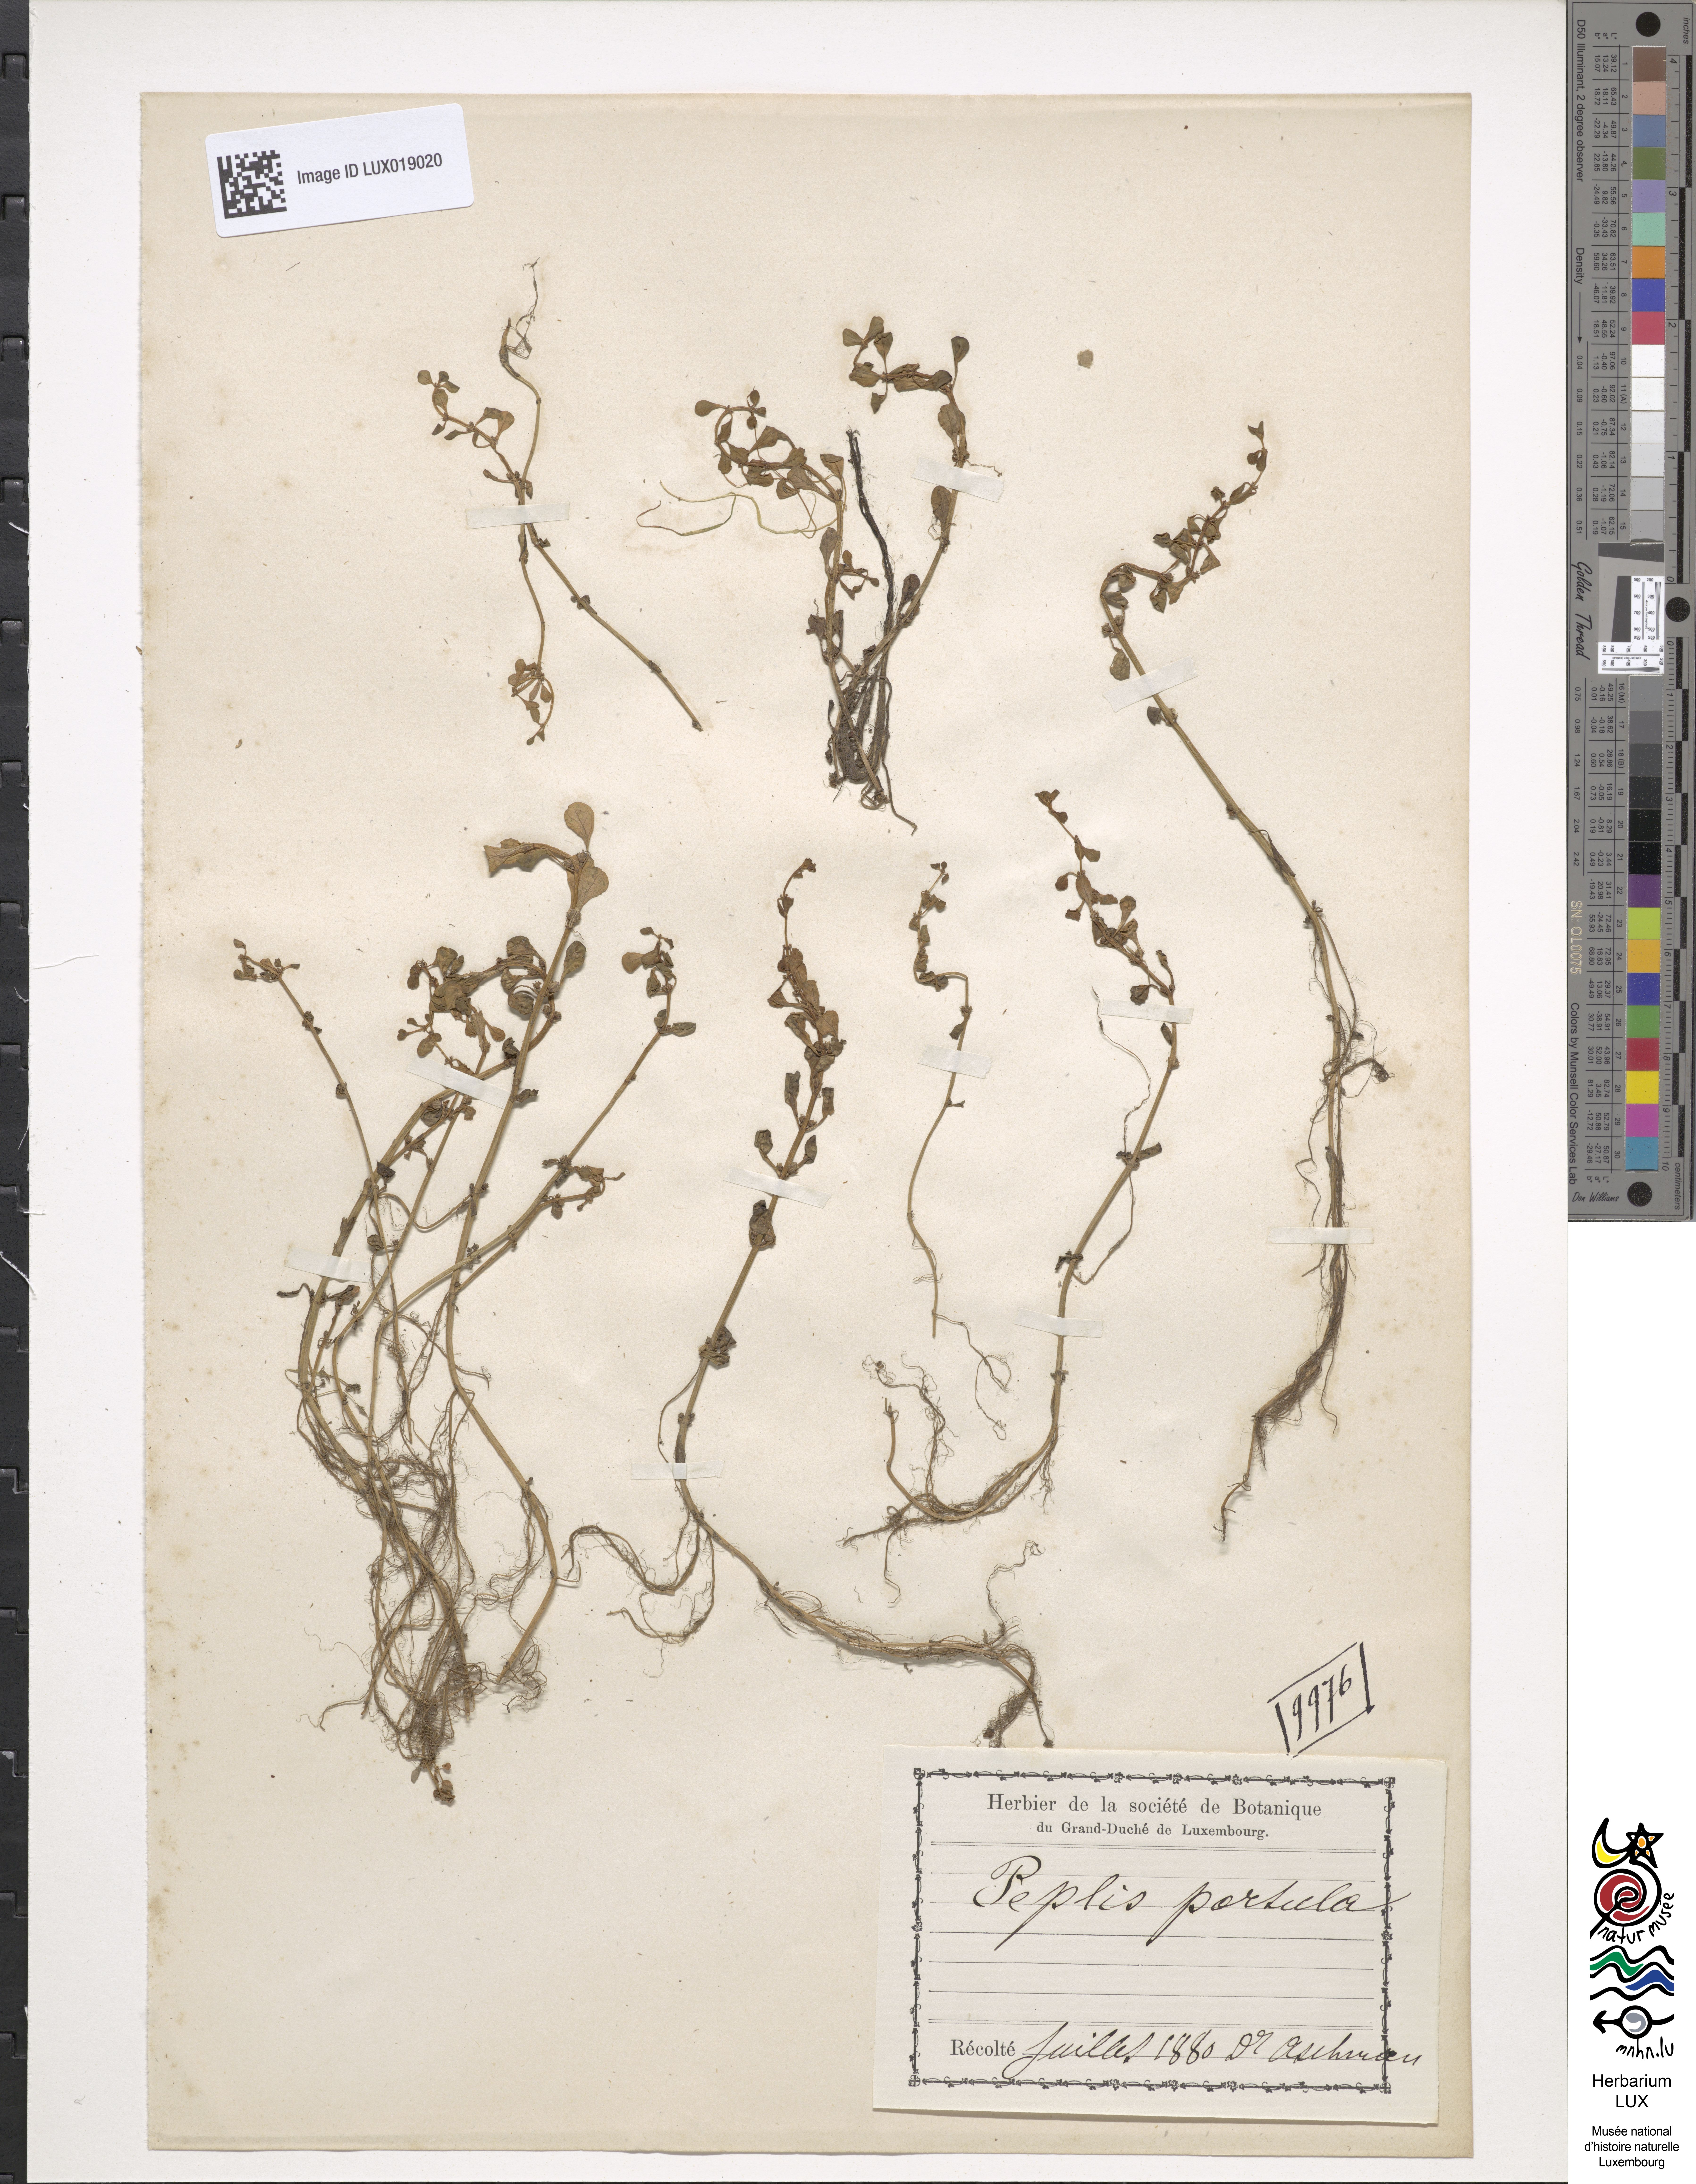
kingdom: Plantae
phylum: Tracheophyta
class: Magnoliopsida
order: Myrtales
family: Lythraceae
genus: Lythrum
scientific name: Lythrum portula
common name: Water purslane
